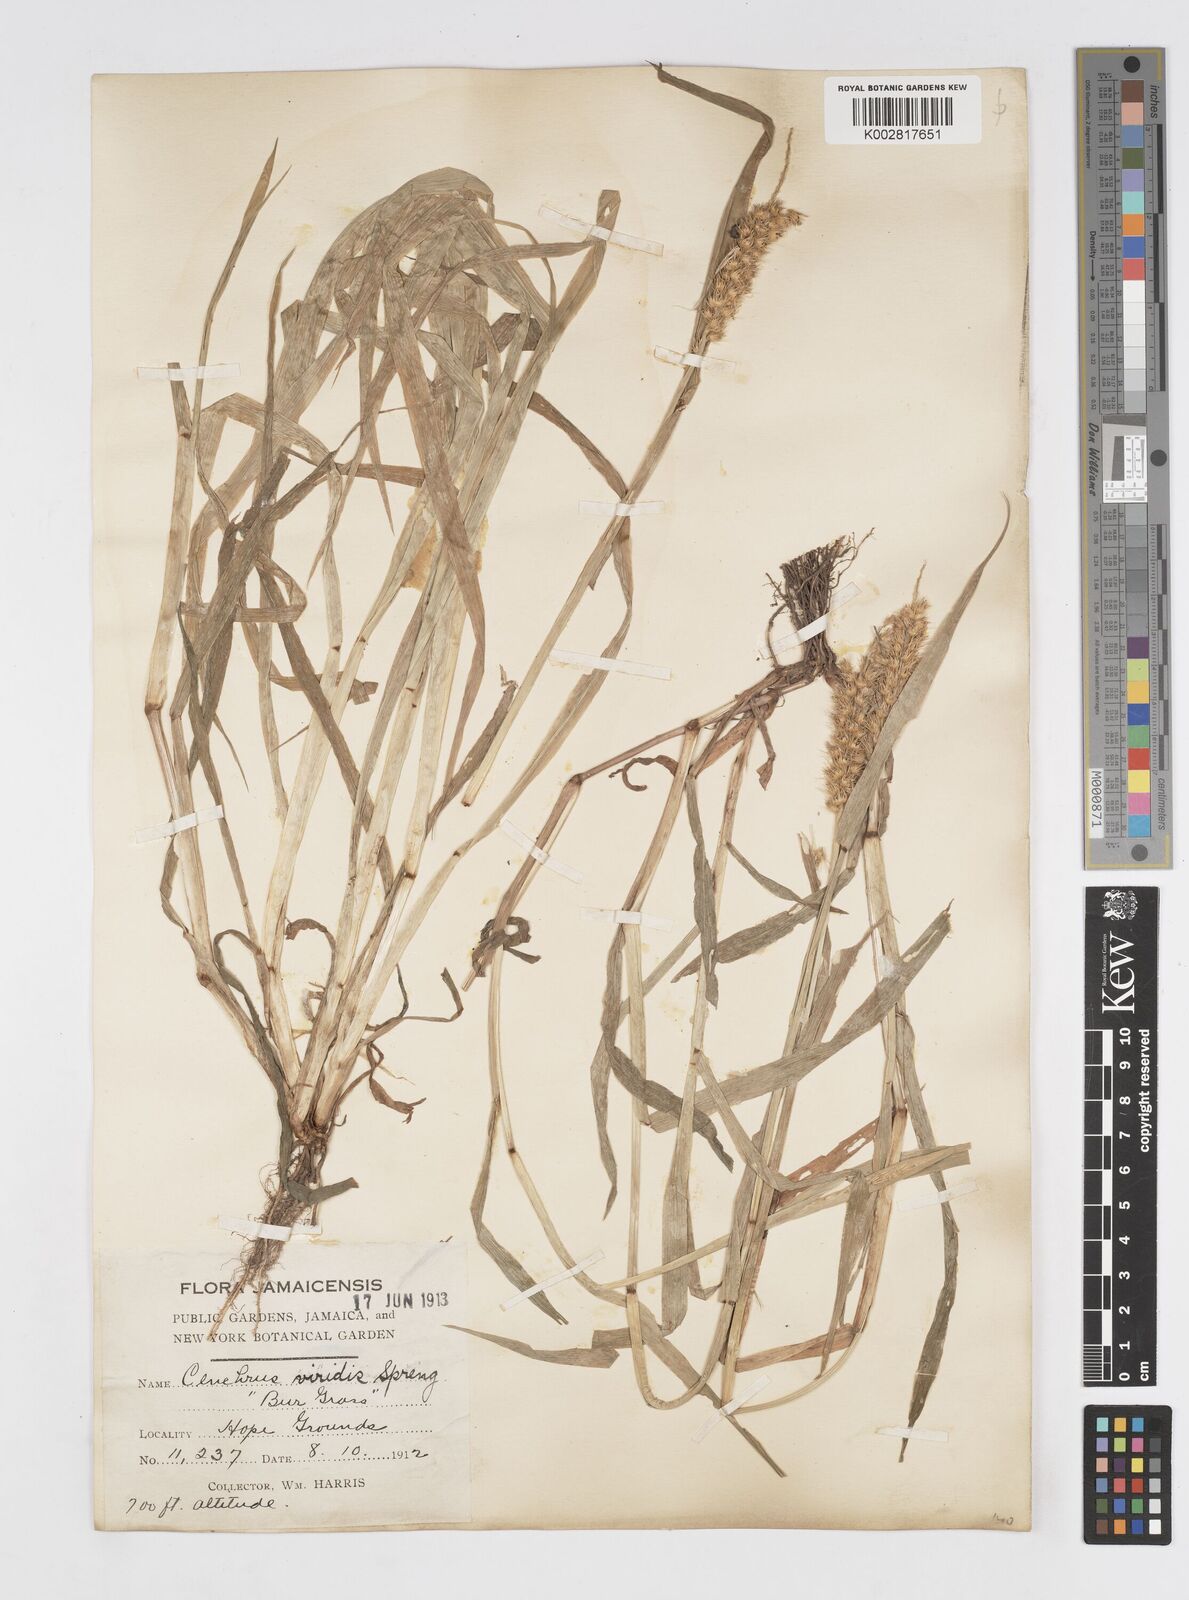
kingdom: Plantae
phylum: Tracheophyta
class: Liliopsida
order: Poales
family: Poaceae
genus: Cenchrus
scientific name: Cenchrus brownii
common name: Slim-bristle sandbur
